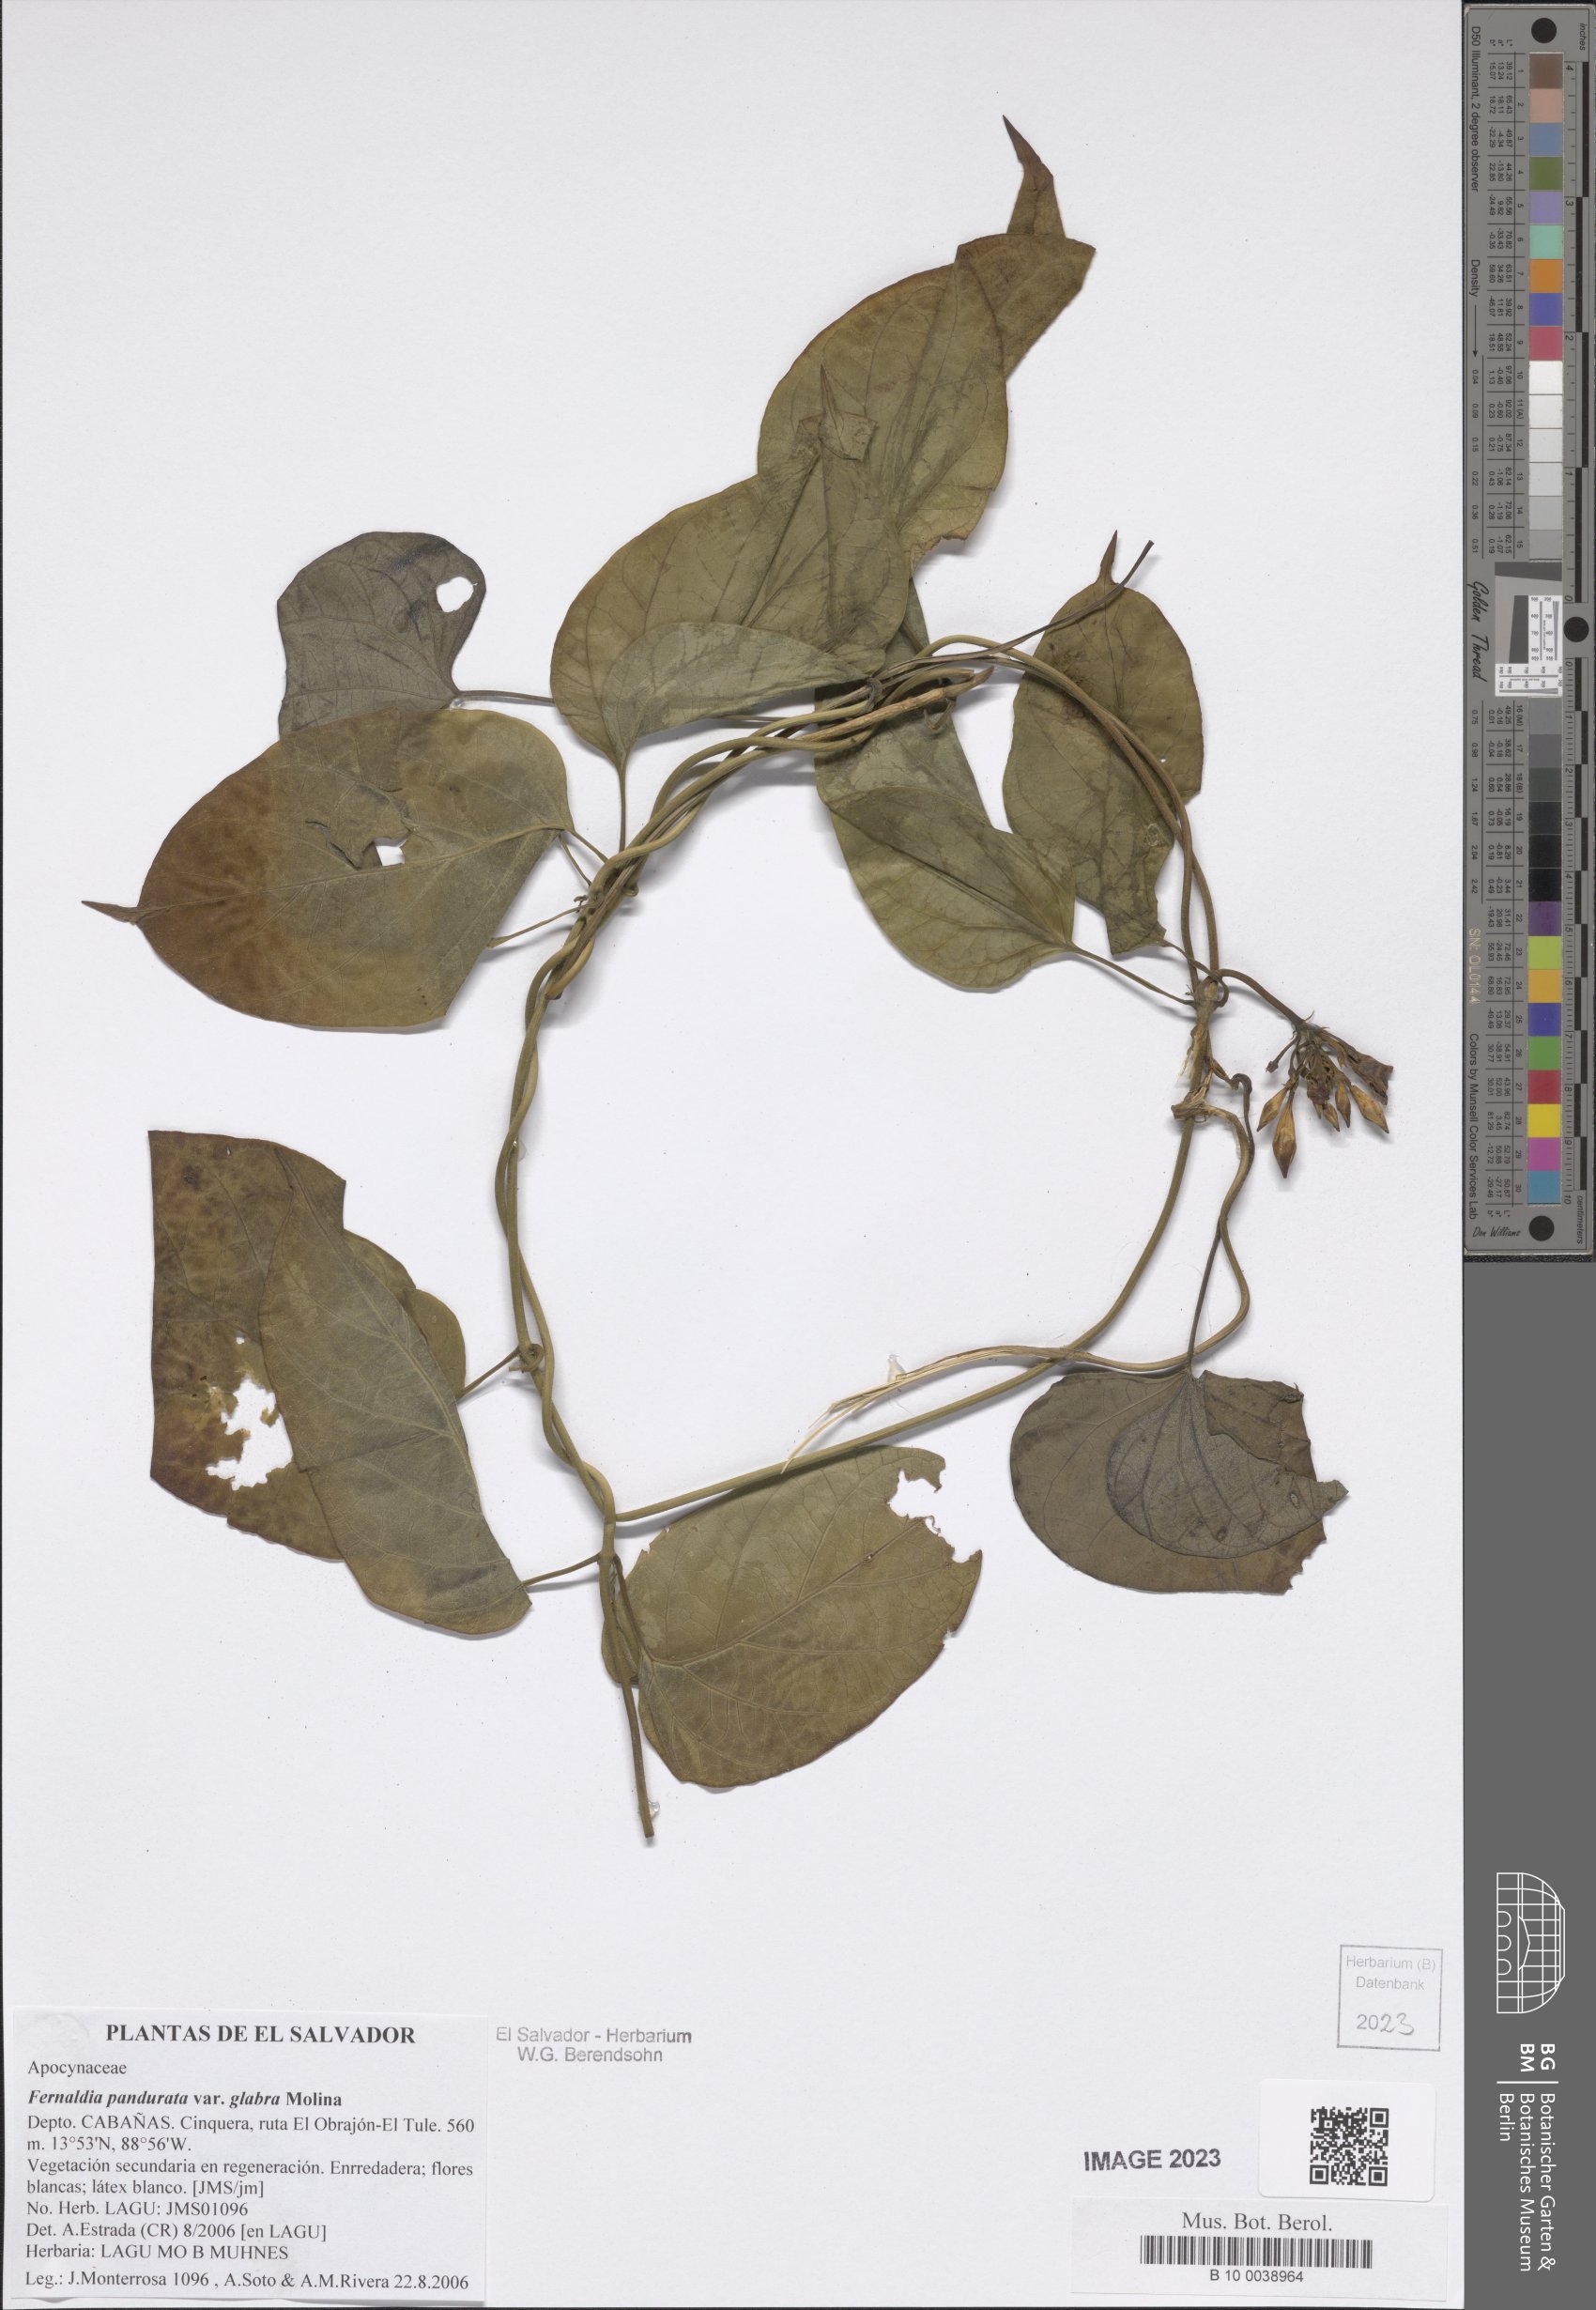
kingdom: Plantae
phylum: Tracheophyta
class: Magnoliopsida
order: Gentianales
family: Apocynaceae
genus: Echites
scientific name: Echites panduratus
